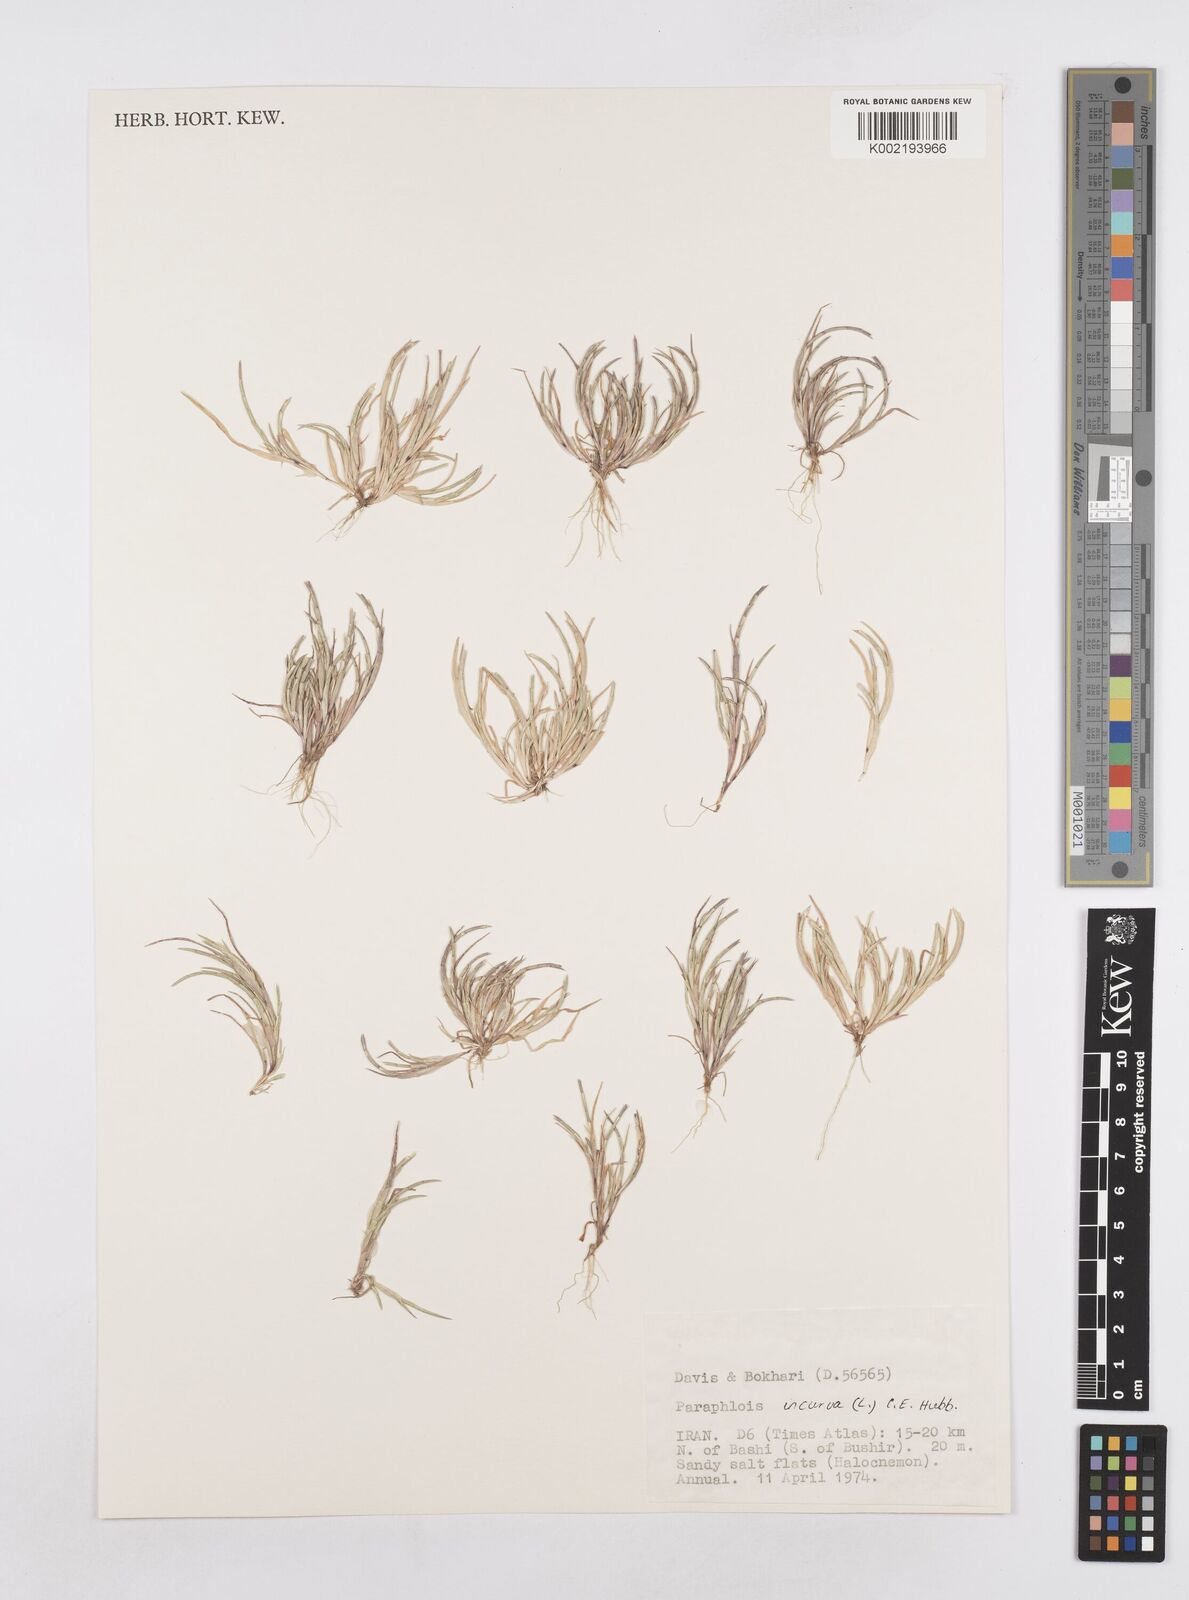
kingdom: Plantae
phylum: Tracheophyta
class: Liliopsida
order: Poales
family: Poaceae
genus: Parapholis
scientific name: Parapholis incurva
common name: Curved sicklegrass
